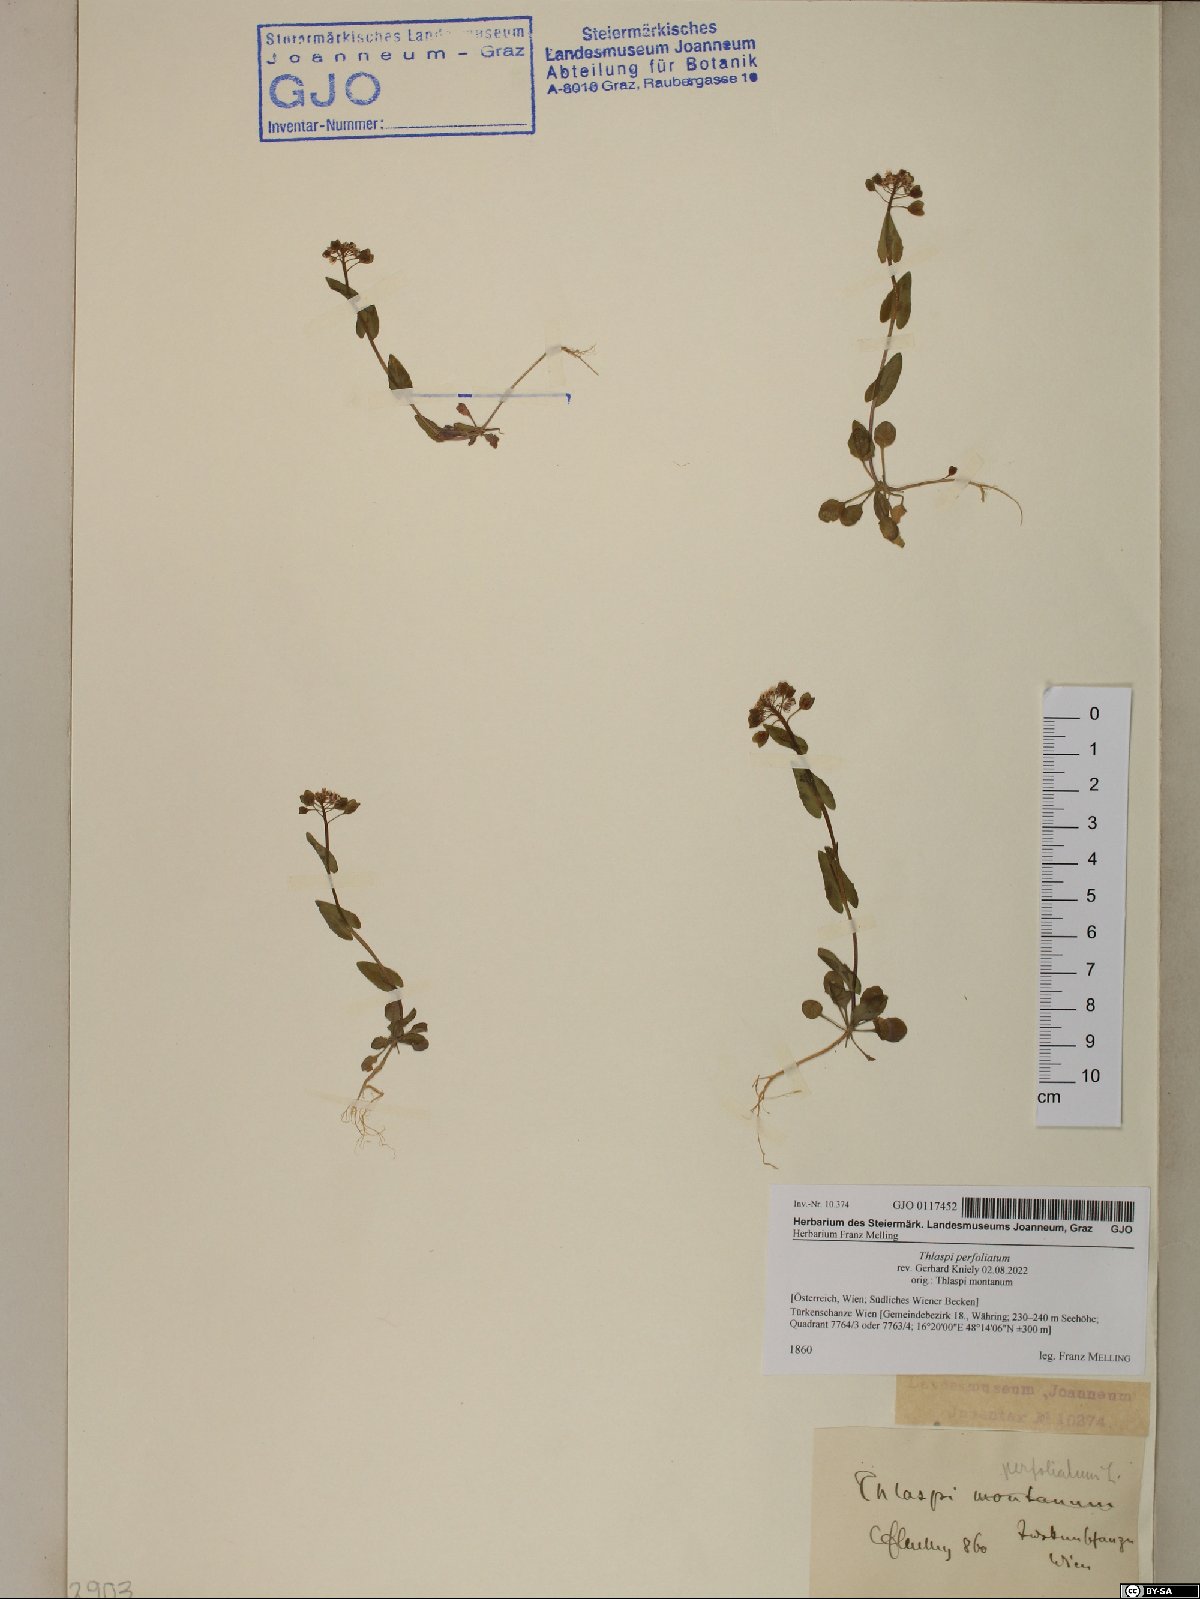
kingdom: Plantae
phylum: Tracheophyta
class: Magnoliopsida
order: Brassicales
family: Brassicaceae
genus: Noccaea
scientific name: Noccaea perfoliata
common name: Perfoliate pennycress
